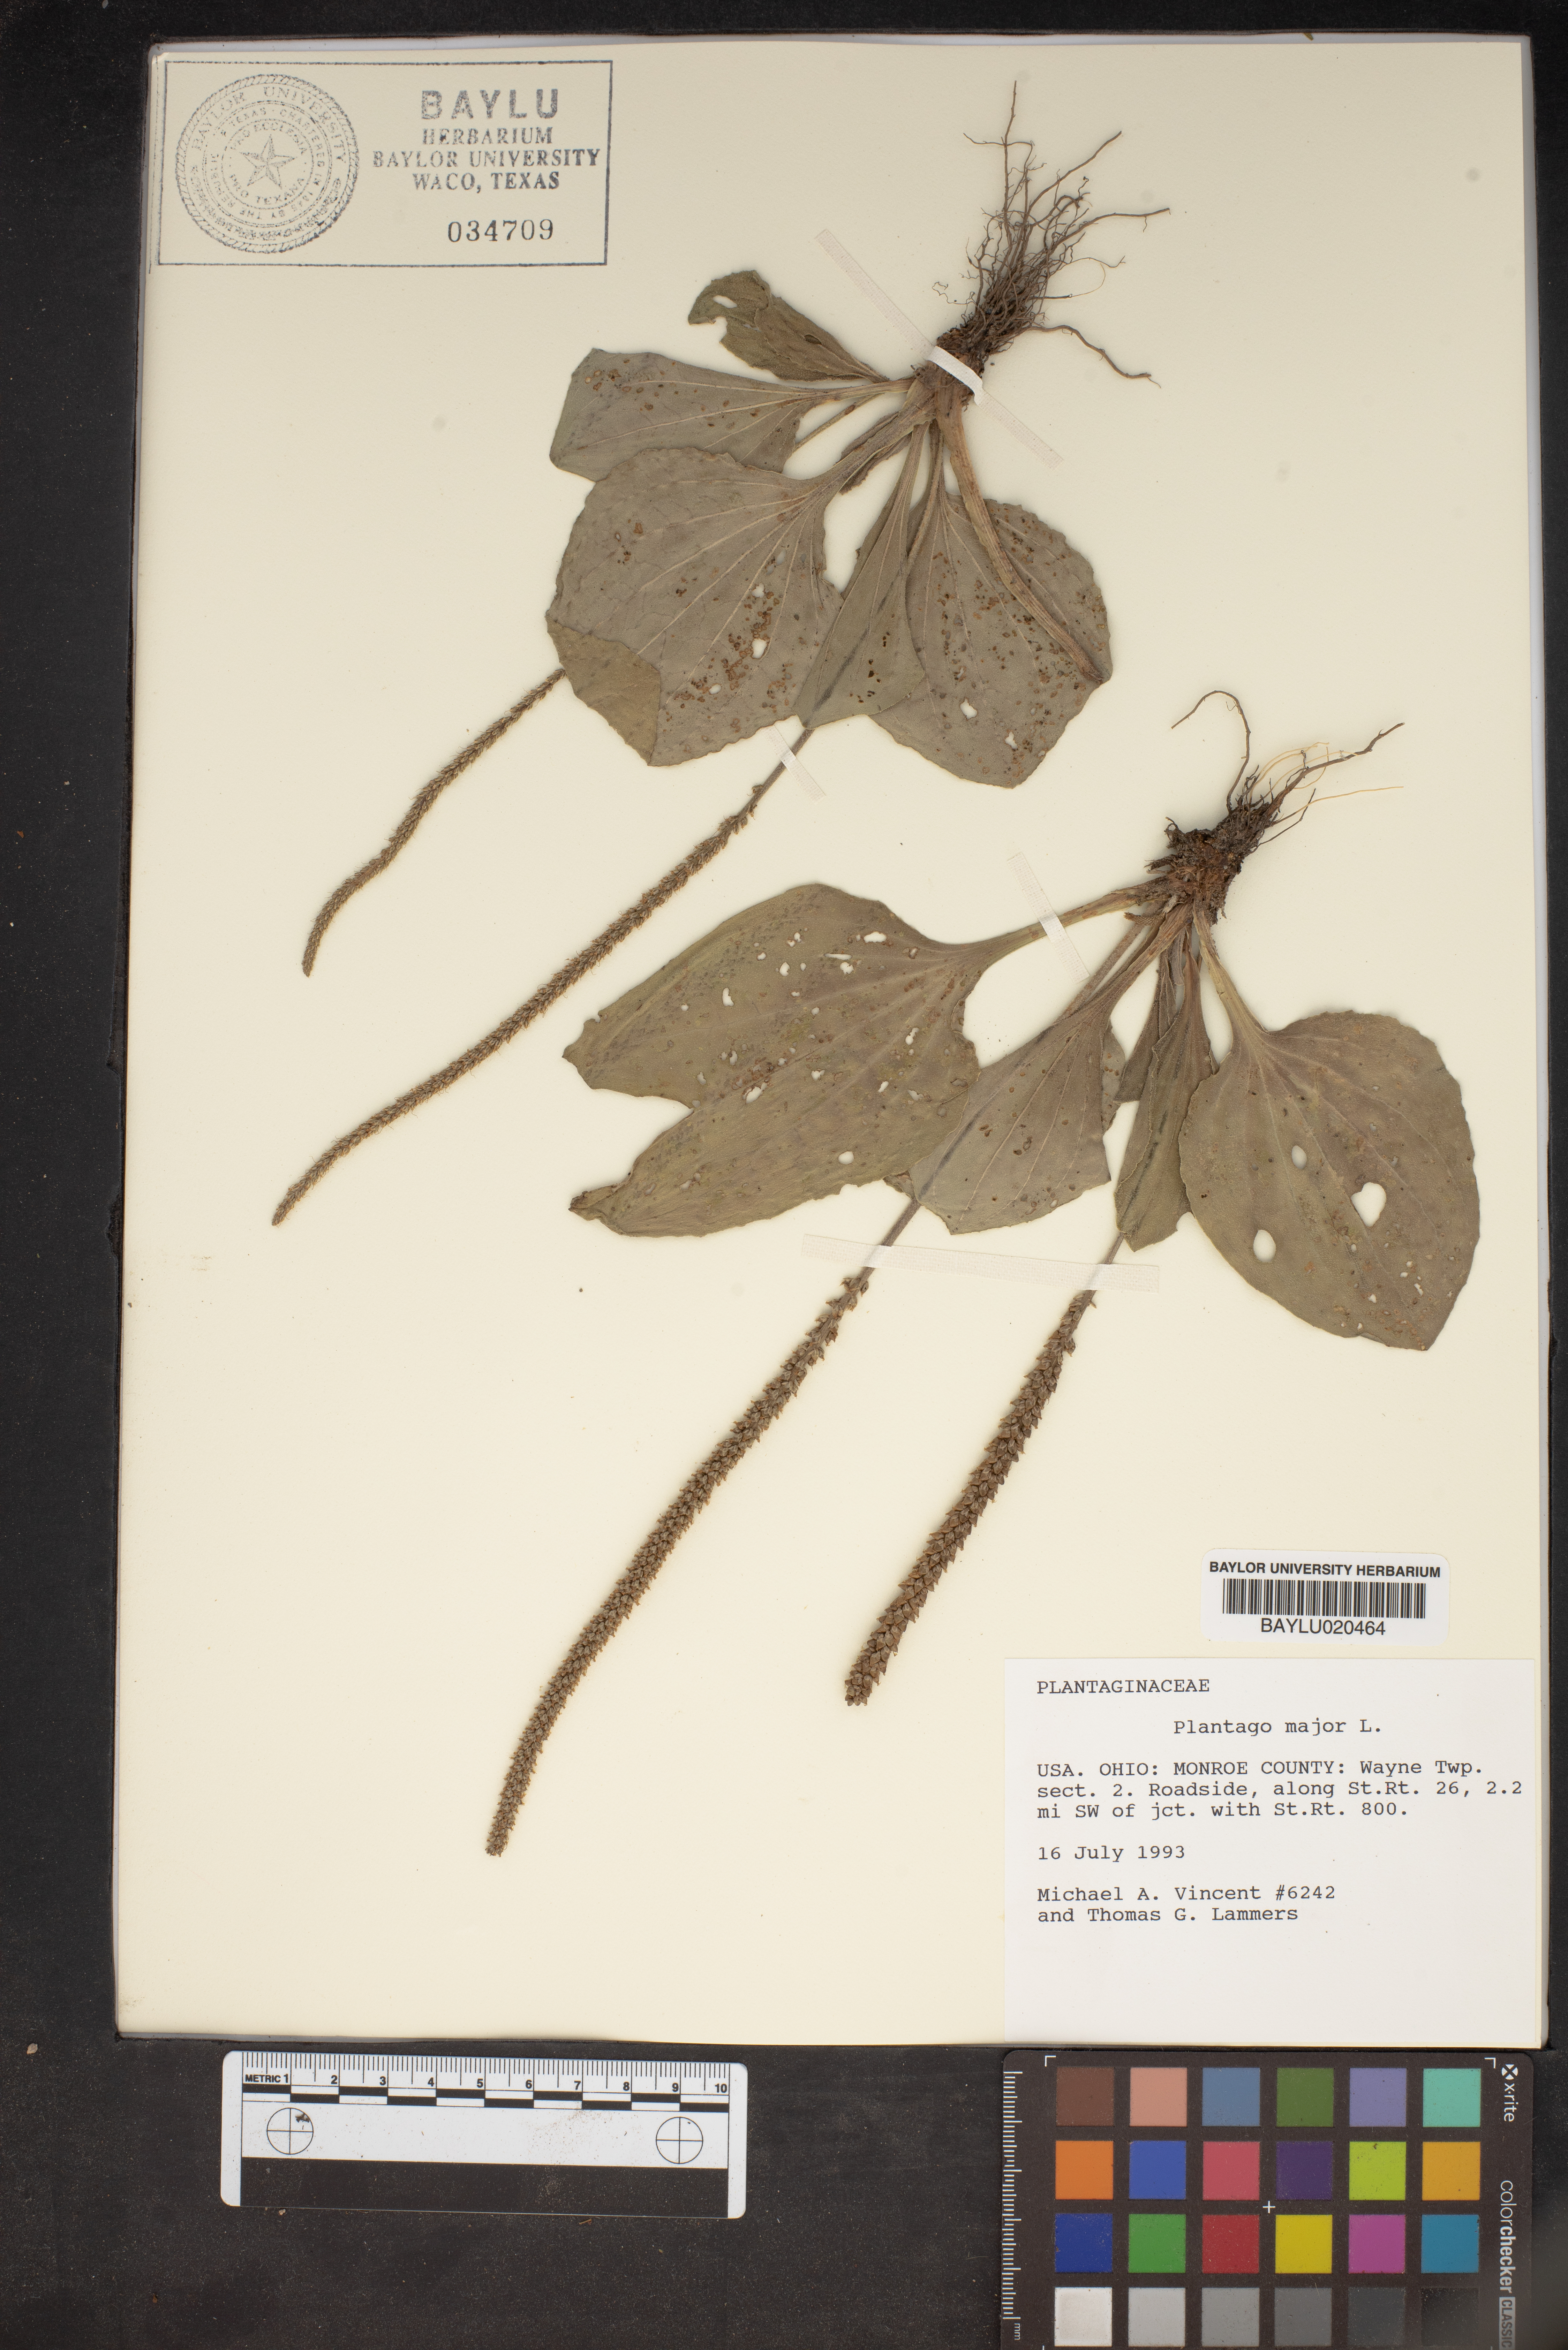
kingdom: Plantae
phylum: Tracheophyta
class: Magnoliopsida
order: Lamiales
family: Plantaginaceae
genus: Plantago
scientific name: Plantago major
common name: Common plantain
